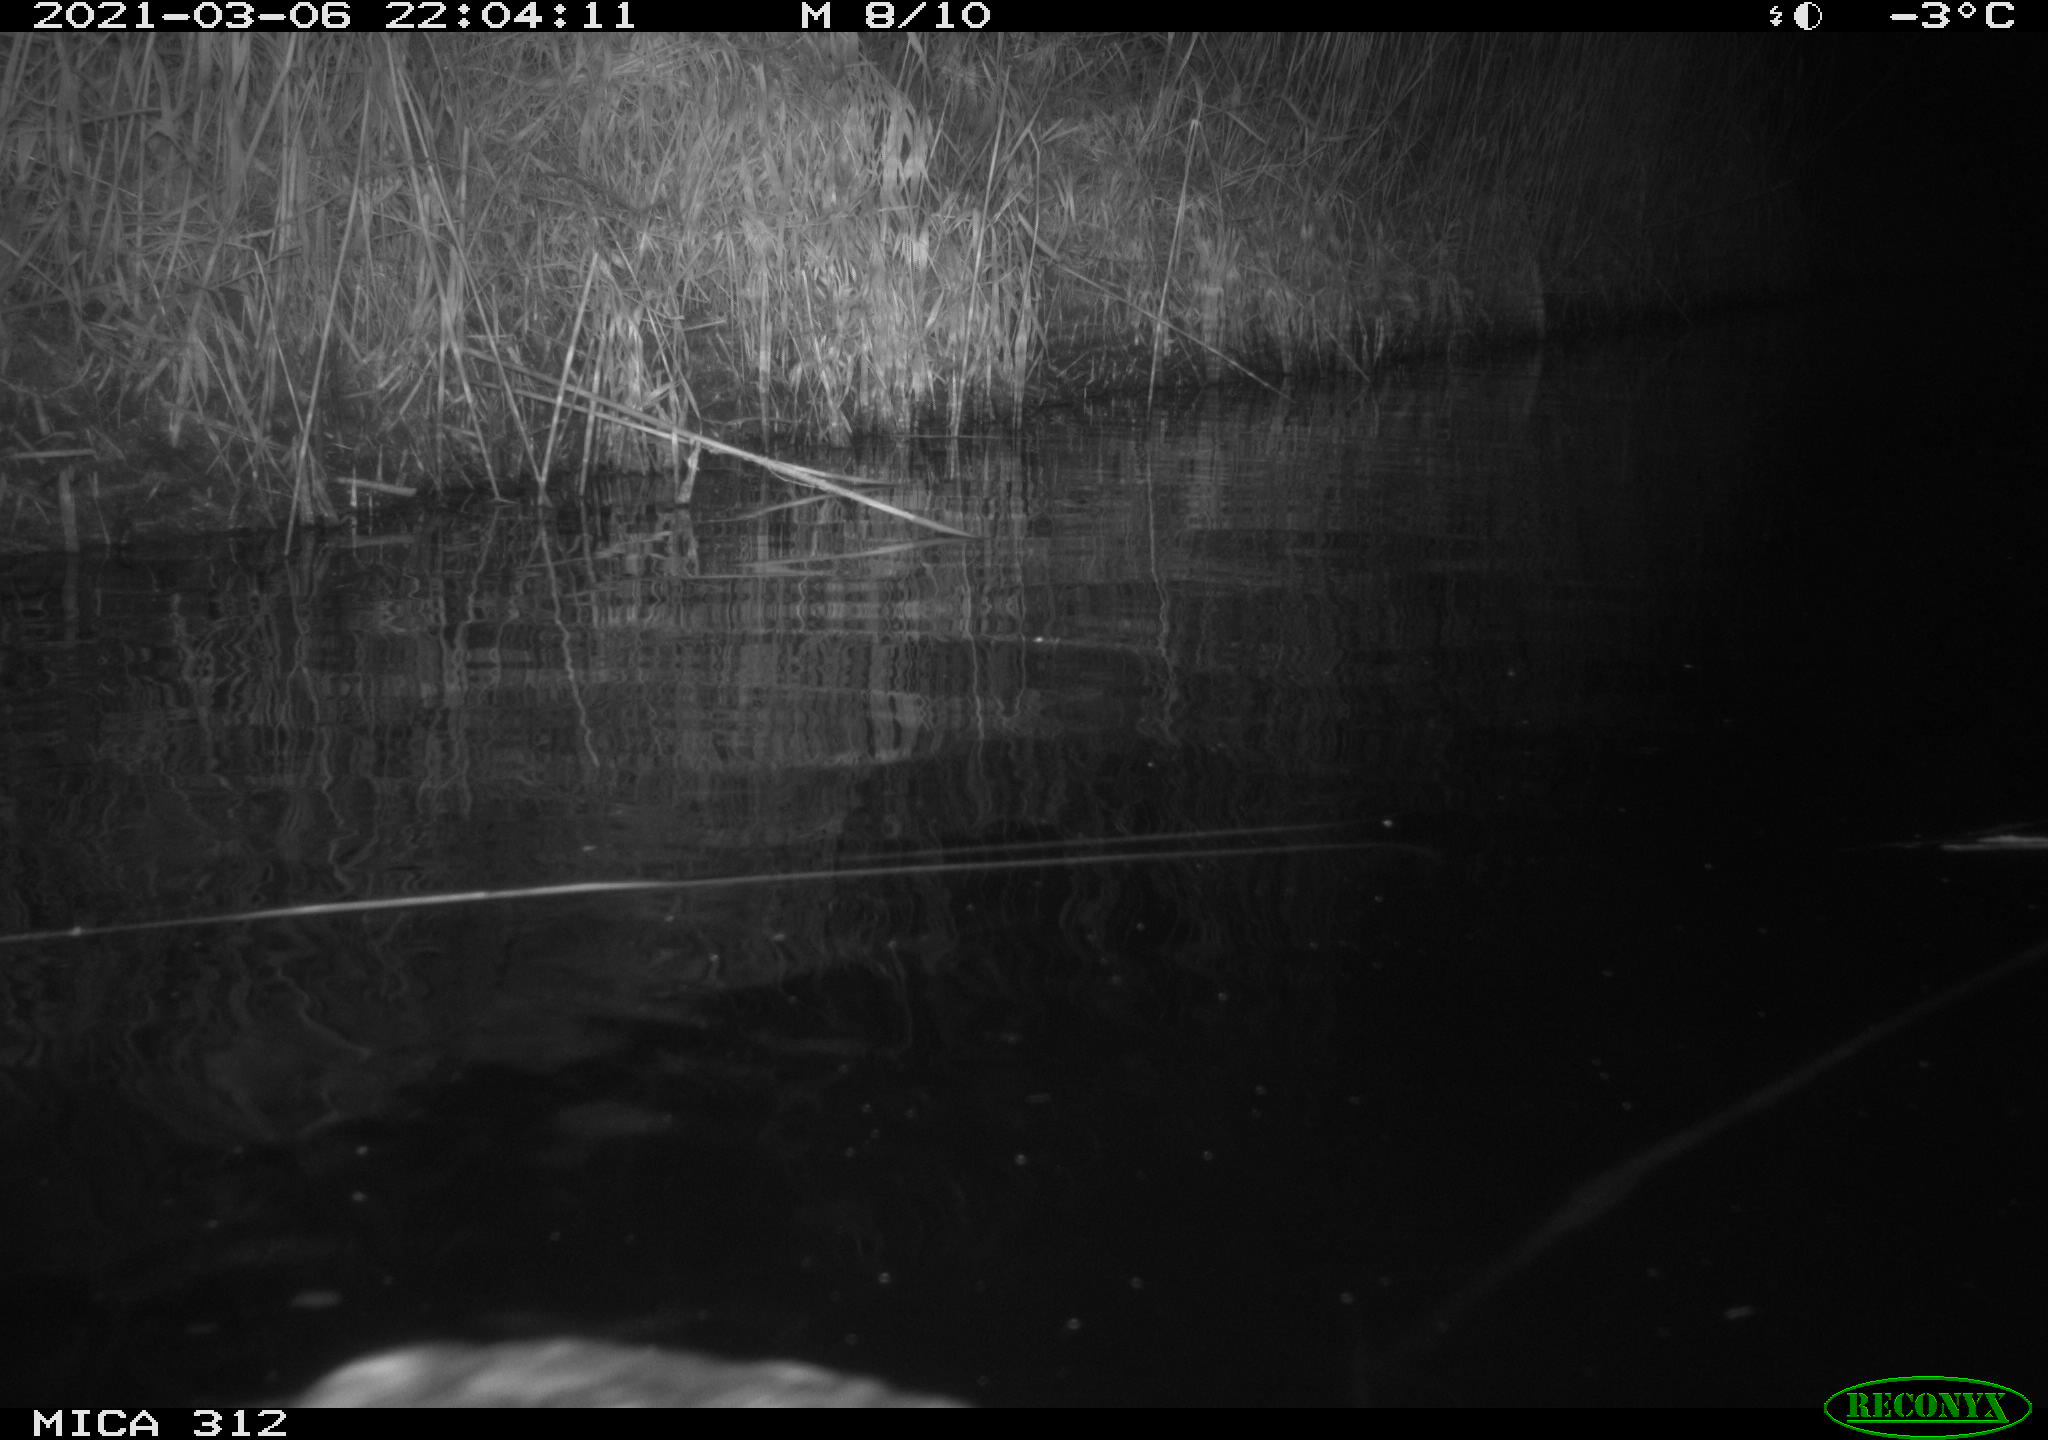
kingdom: Animalia
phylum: Chordata
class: Aves
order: Gruiformes
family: Rallidae
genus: Fulica
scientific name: Fulica atra
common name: Eurasian coot
